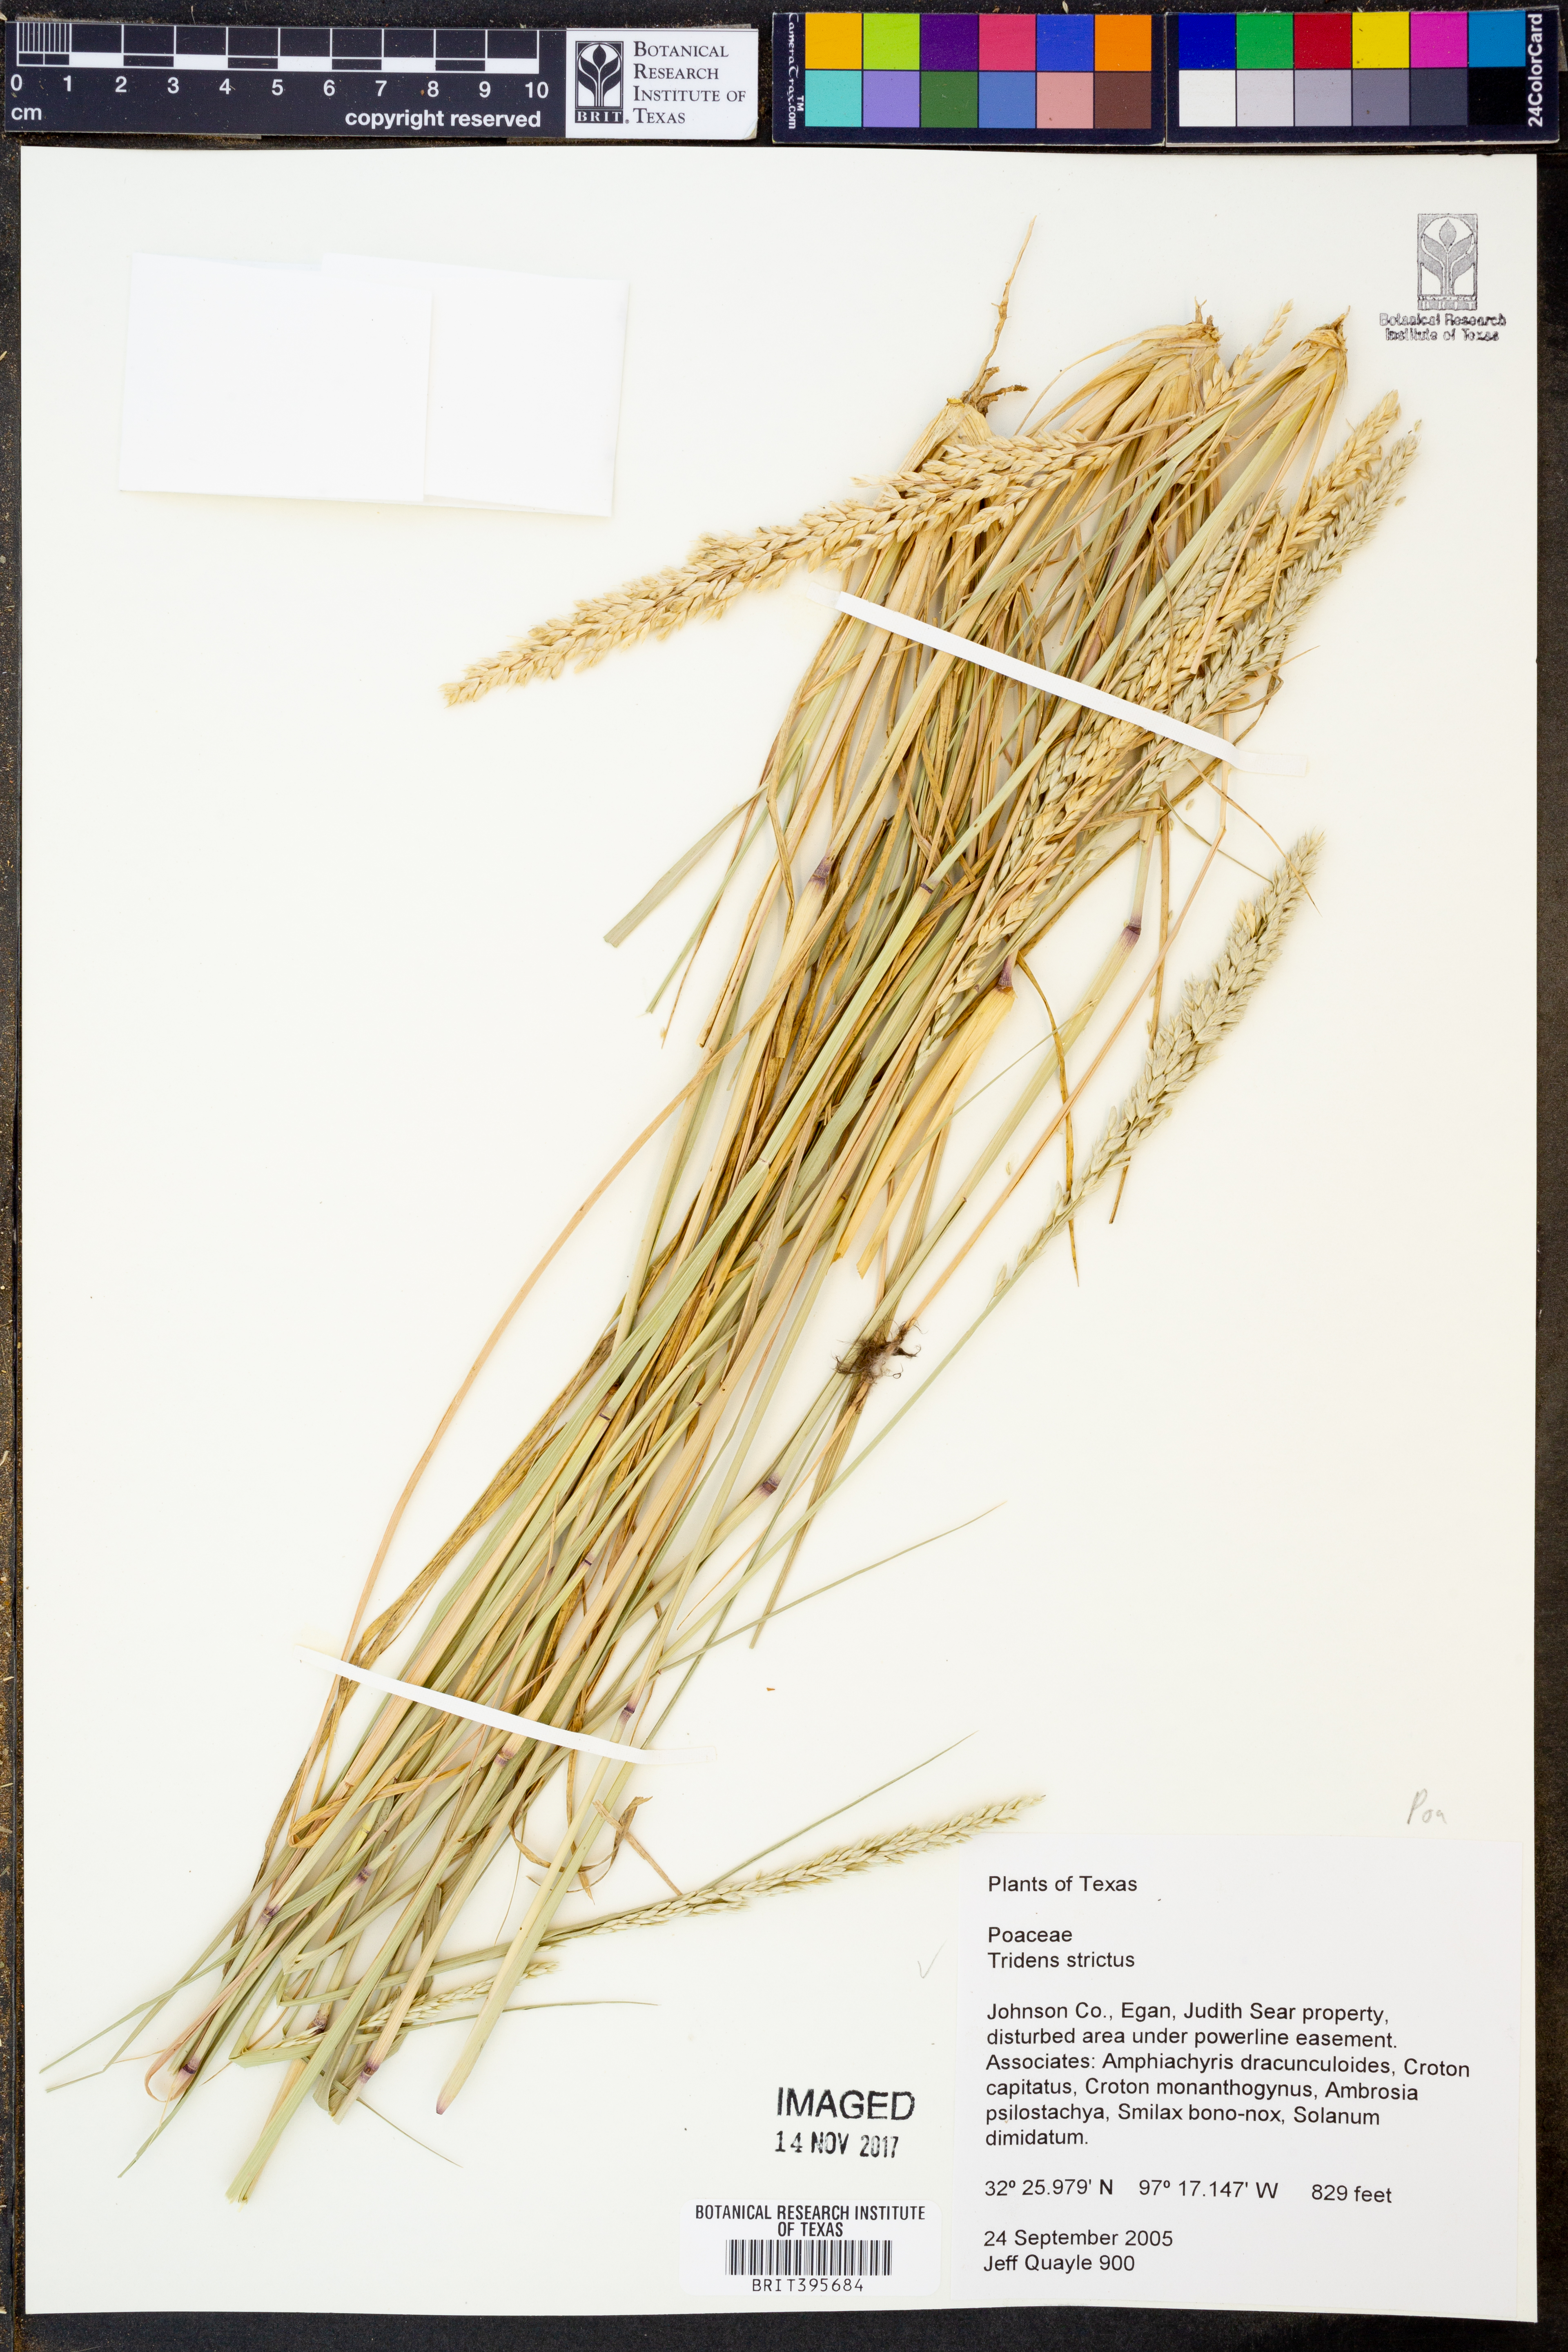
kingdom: Plantae
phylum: Tracheophyta
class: Liliopsida
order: Poales
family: Poaceae
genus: Tridens
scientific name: Tridens strictus
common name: Long-spike tridens
